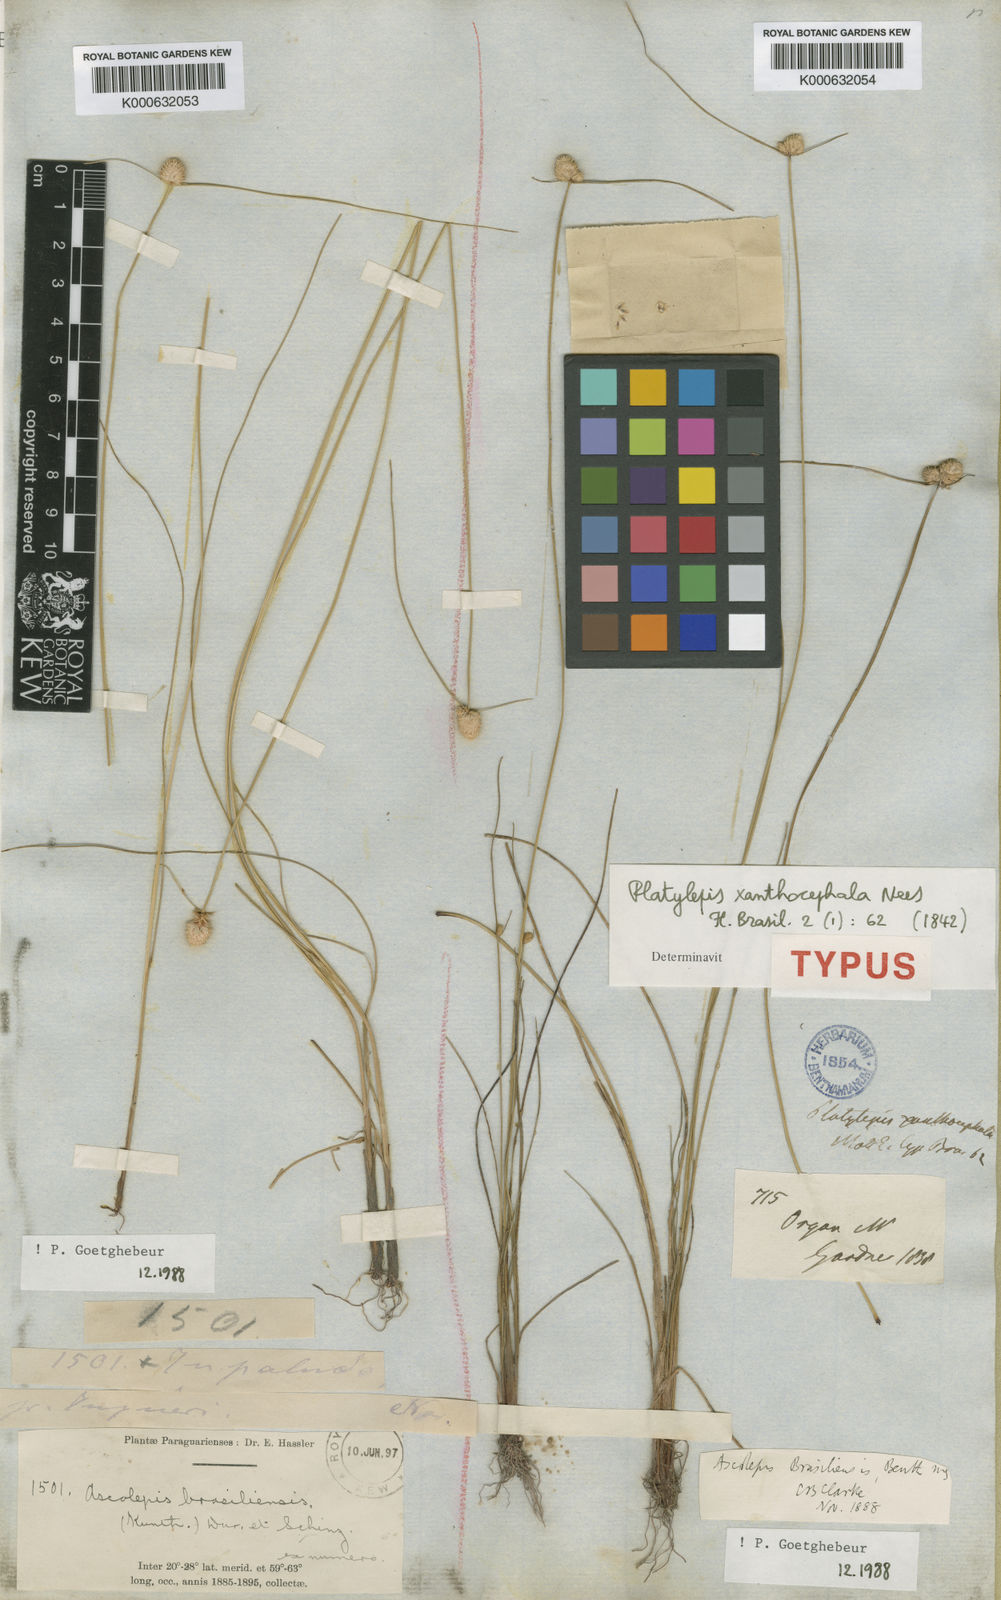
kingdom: Plantae
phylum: Tracheophyta
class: Liliopsida
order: Poales
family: Cyperaceae
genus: Cyperus
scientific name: Cyperus brasiliensis
